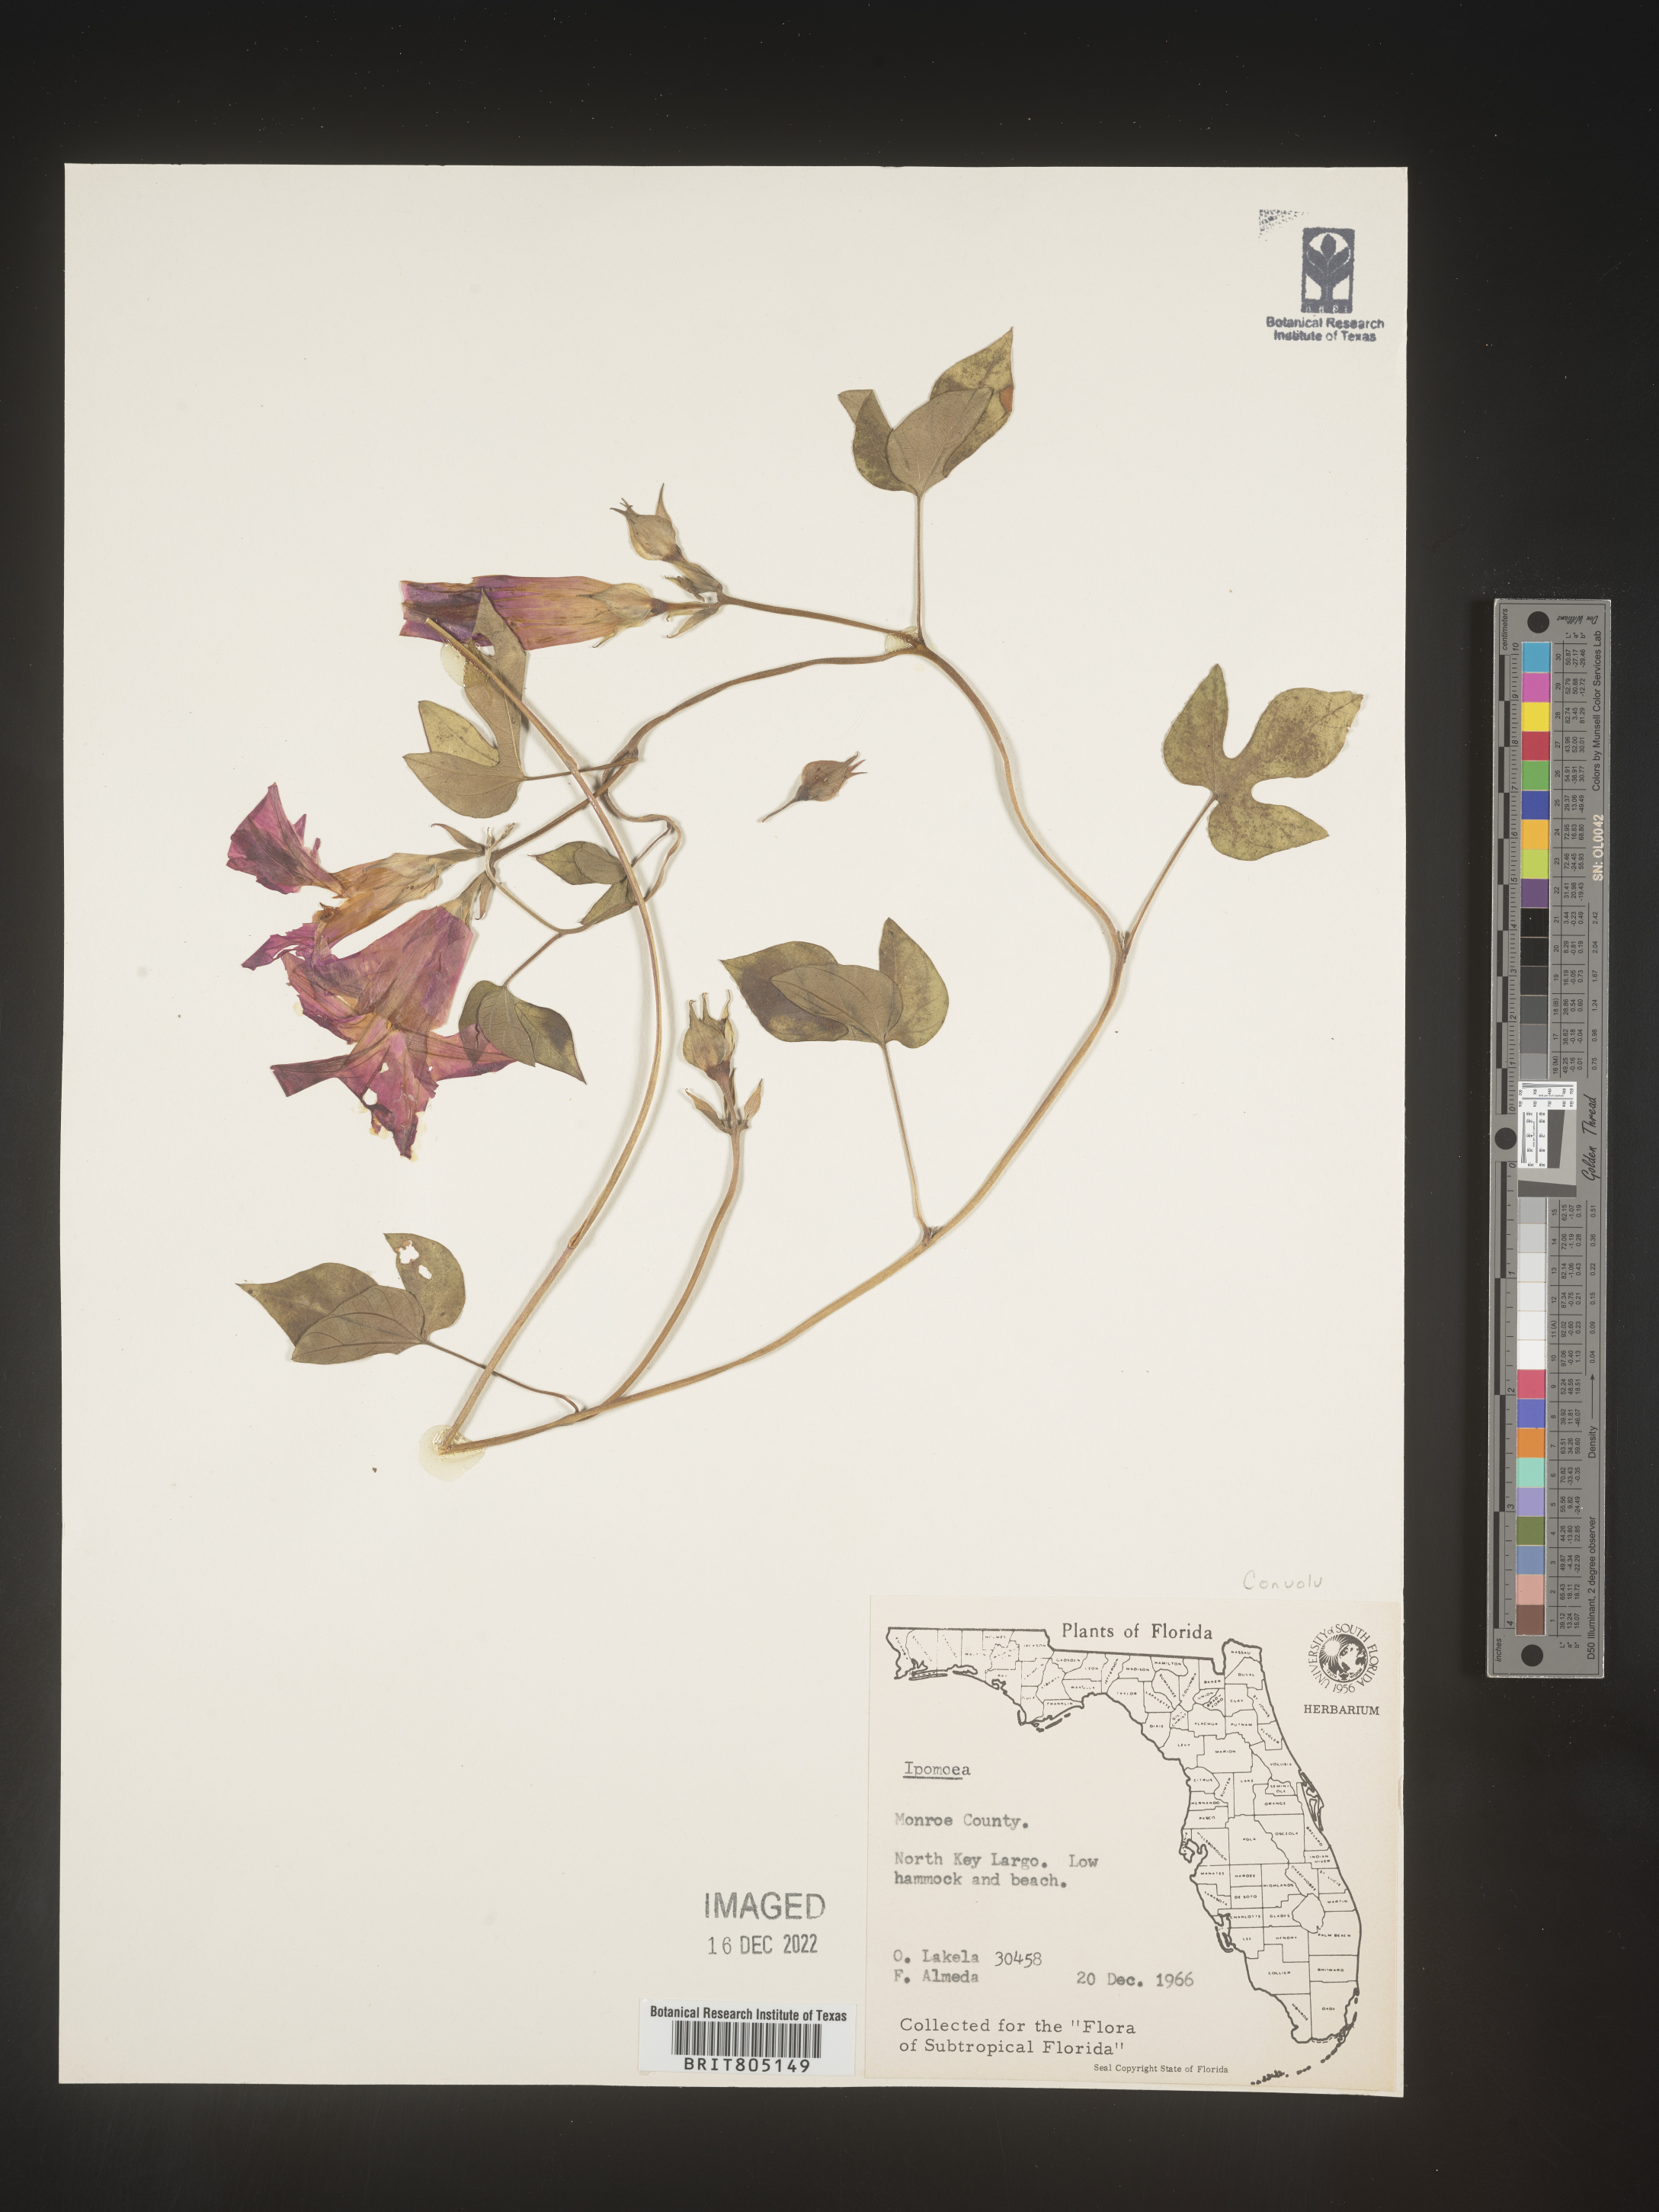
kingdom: Plantae
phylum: Tracheophyta
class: Magnoliopsida
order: Solanales
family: Convolvulaceae
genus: Ipomoea
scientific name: Ipomoea
